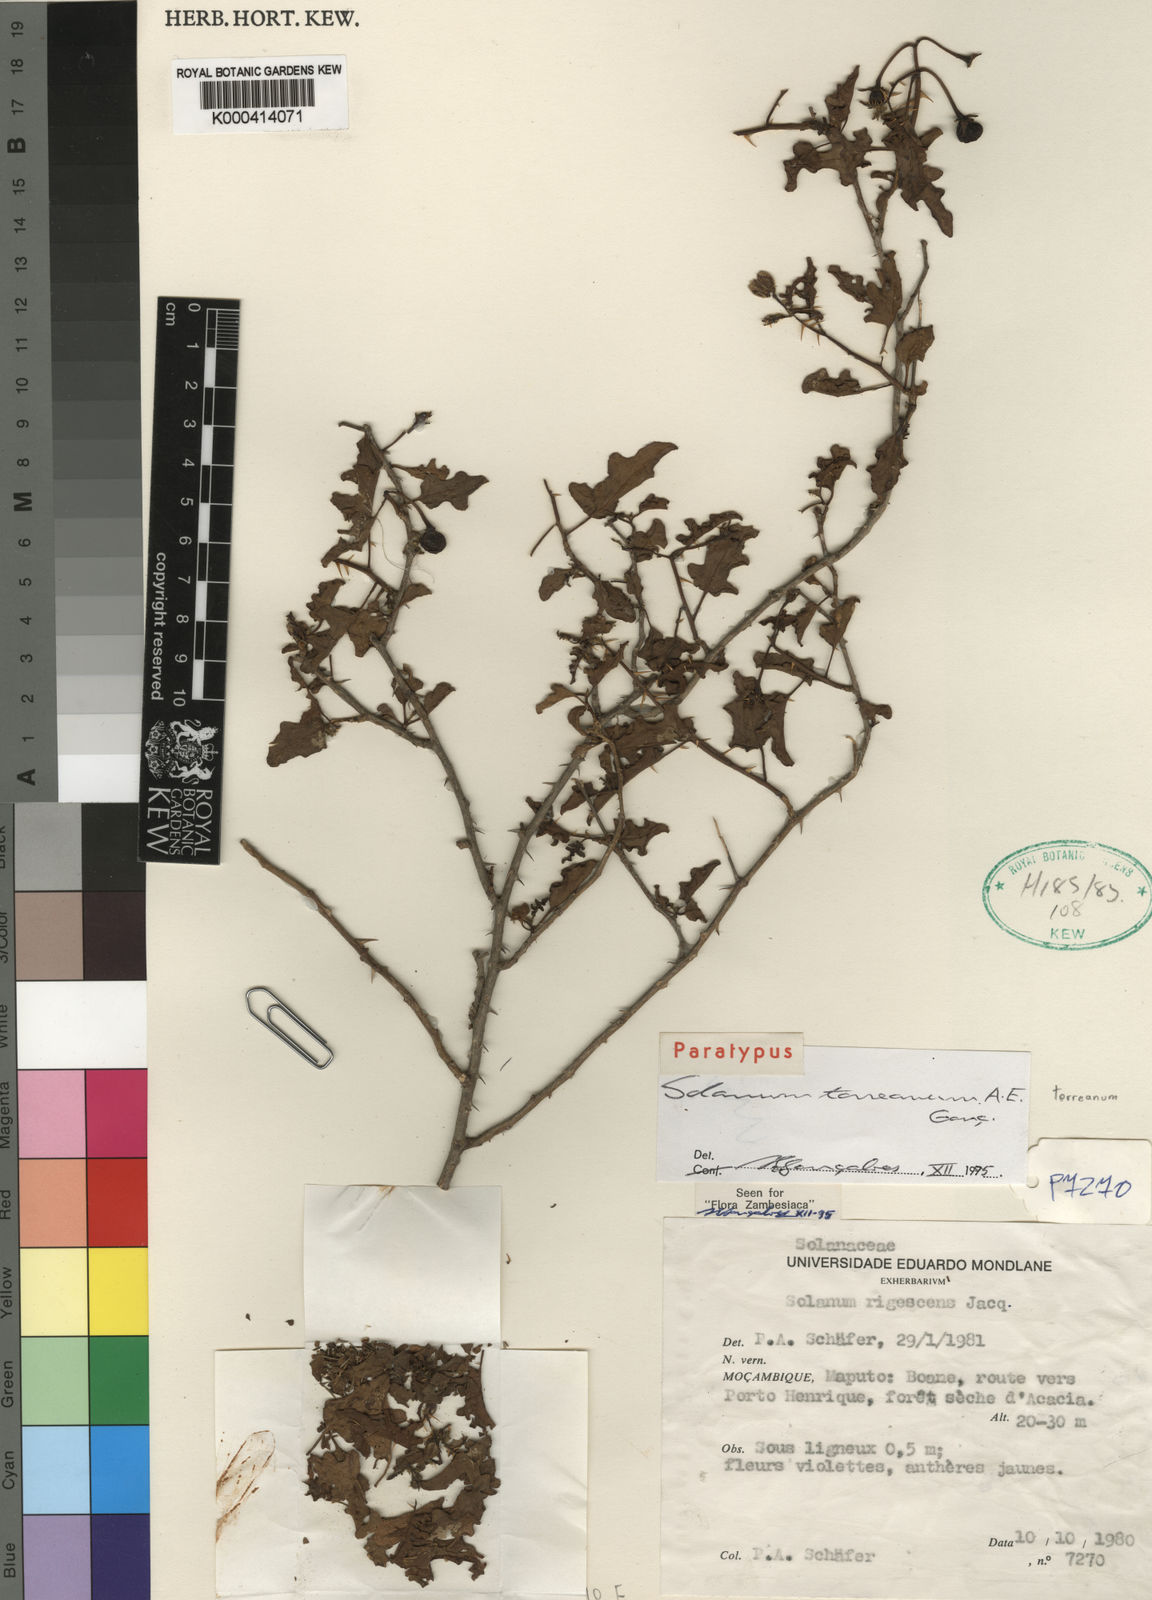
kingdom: Plantae
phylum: Tracheophyta
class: Magnoliopsida
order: Solanales
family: Solanaceae
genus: Solanum
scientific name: Solanum
